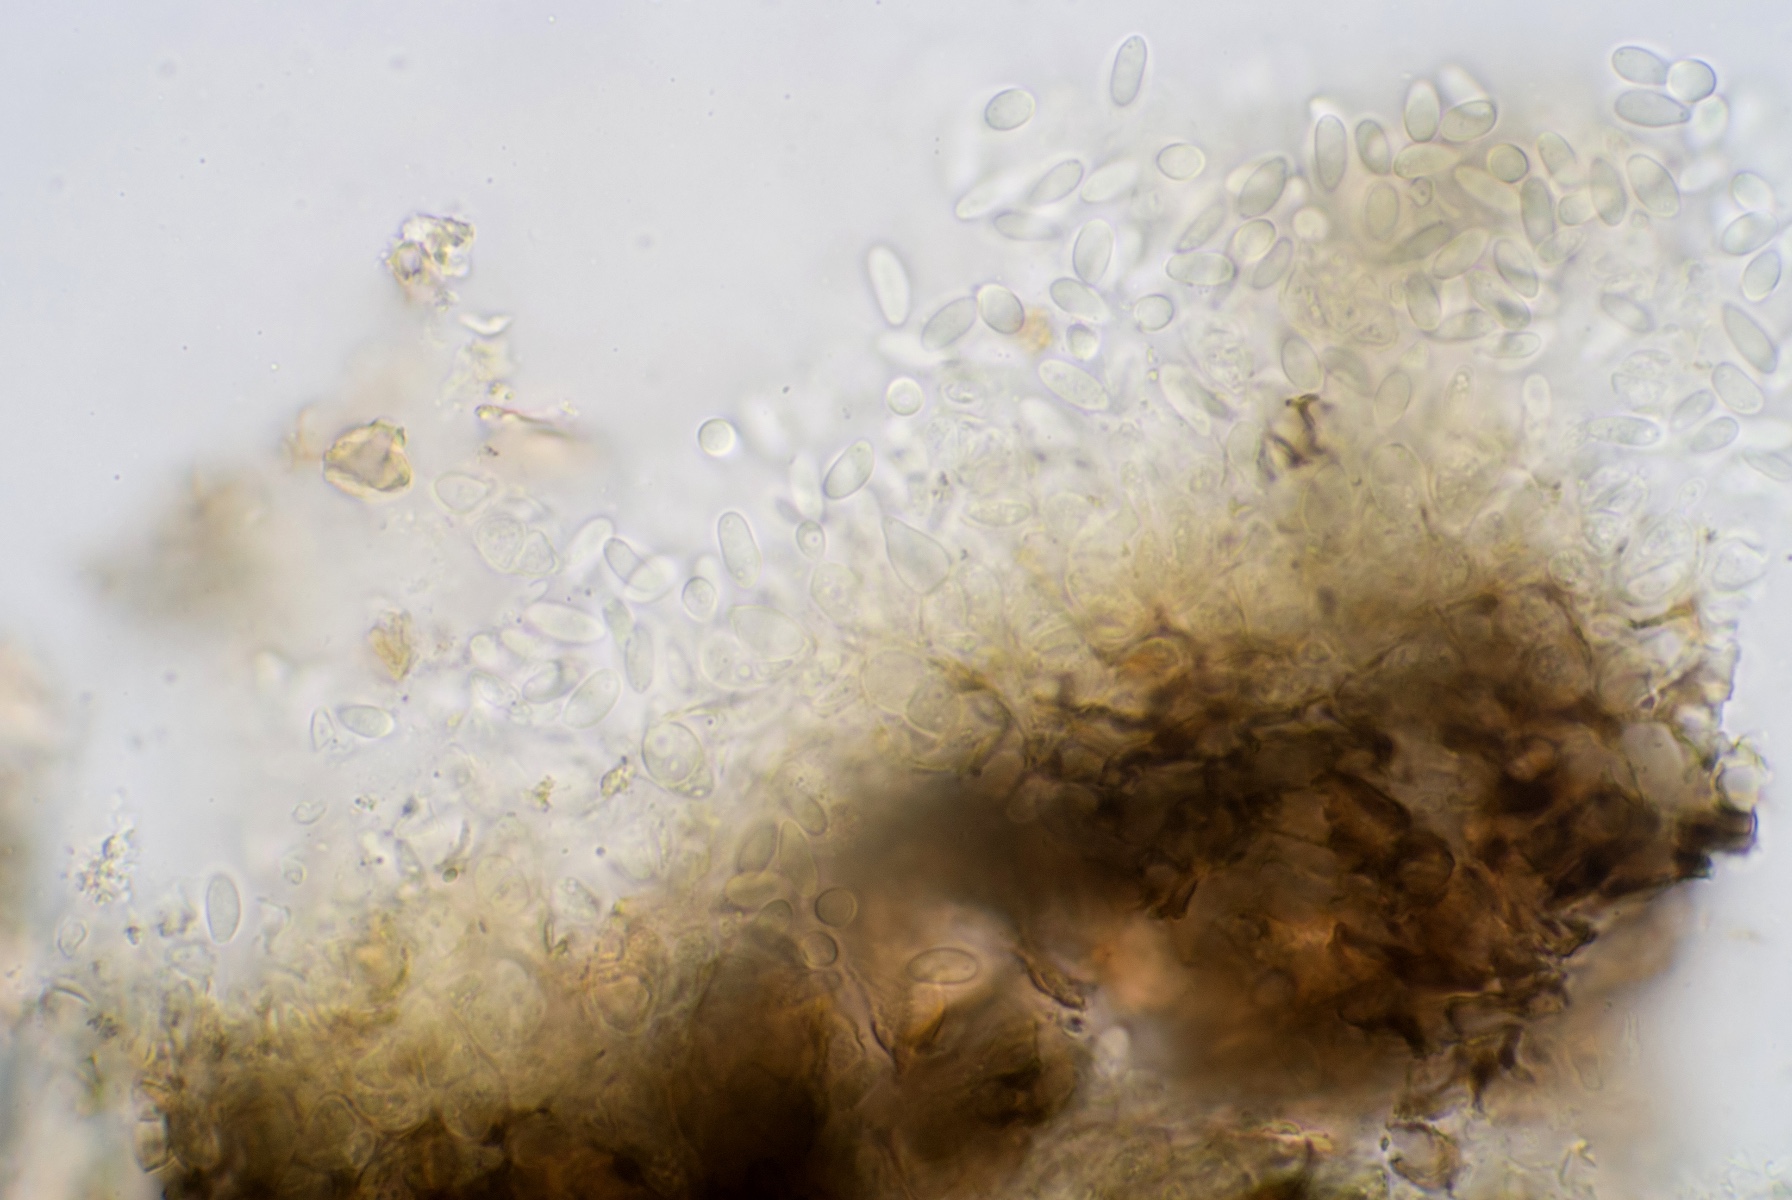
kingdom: Fungi
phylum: Ascomycota
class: Dothideomycetes
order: Dothideales
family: Dothioraceae
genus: Sydowia
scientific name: Sydowia polyspora
